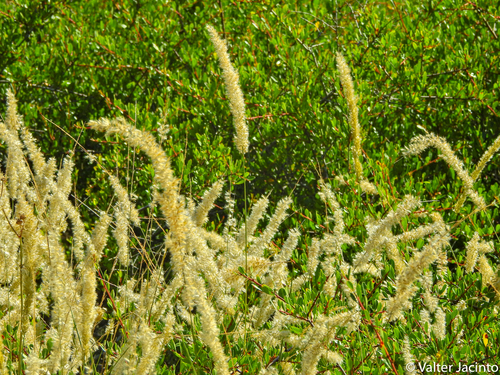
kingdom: Plantae
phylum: Tracheophyta
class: Liliopsida
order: Poales
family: Poaceae
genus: Melica
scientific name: Melica ciliata
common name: Hairy melicgrass
